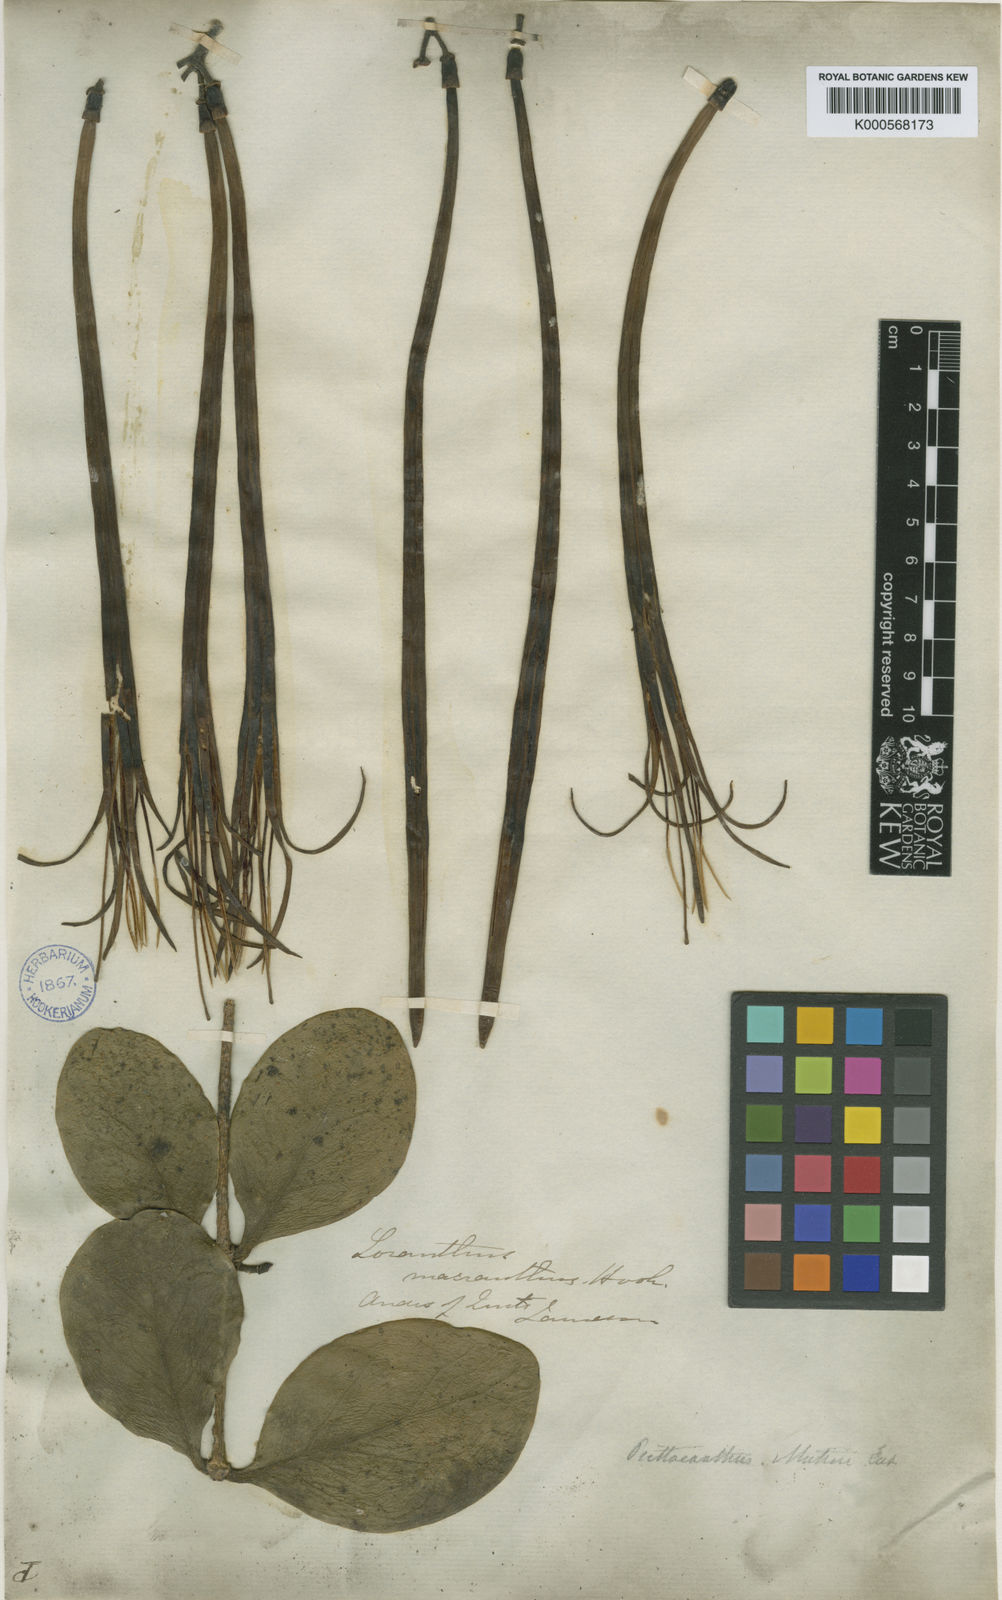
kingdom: Plantae
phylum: Tracheophyta
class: Magnoliopsida
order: Santalales
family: Loranthaceae
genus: Aetanthus
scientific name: Aetanthus macranthus
